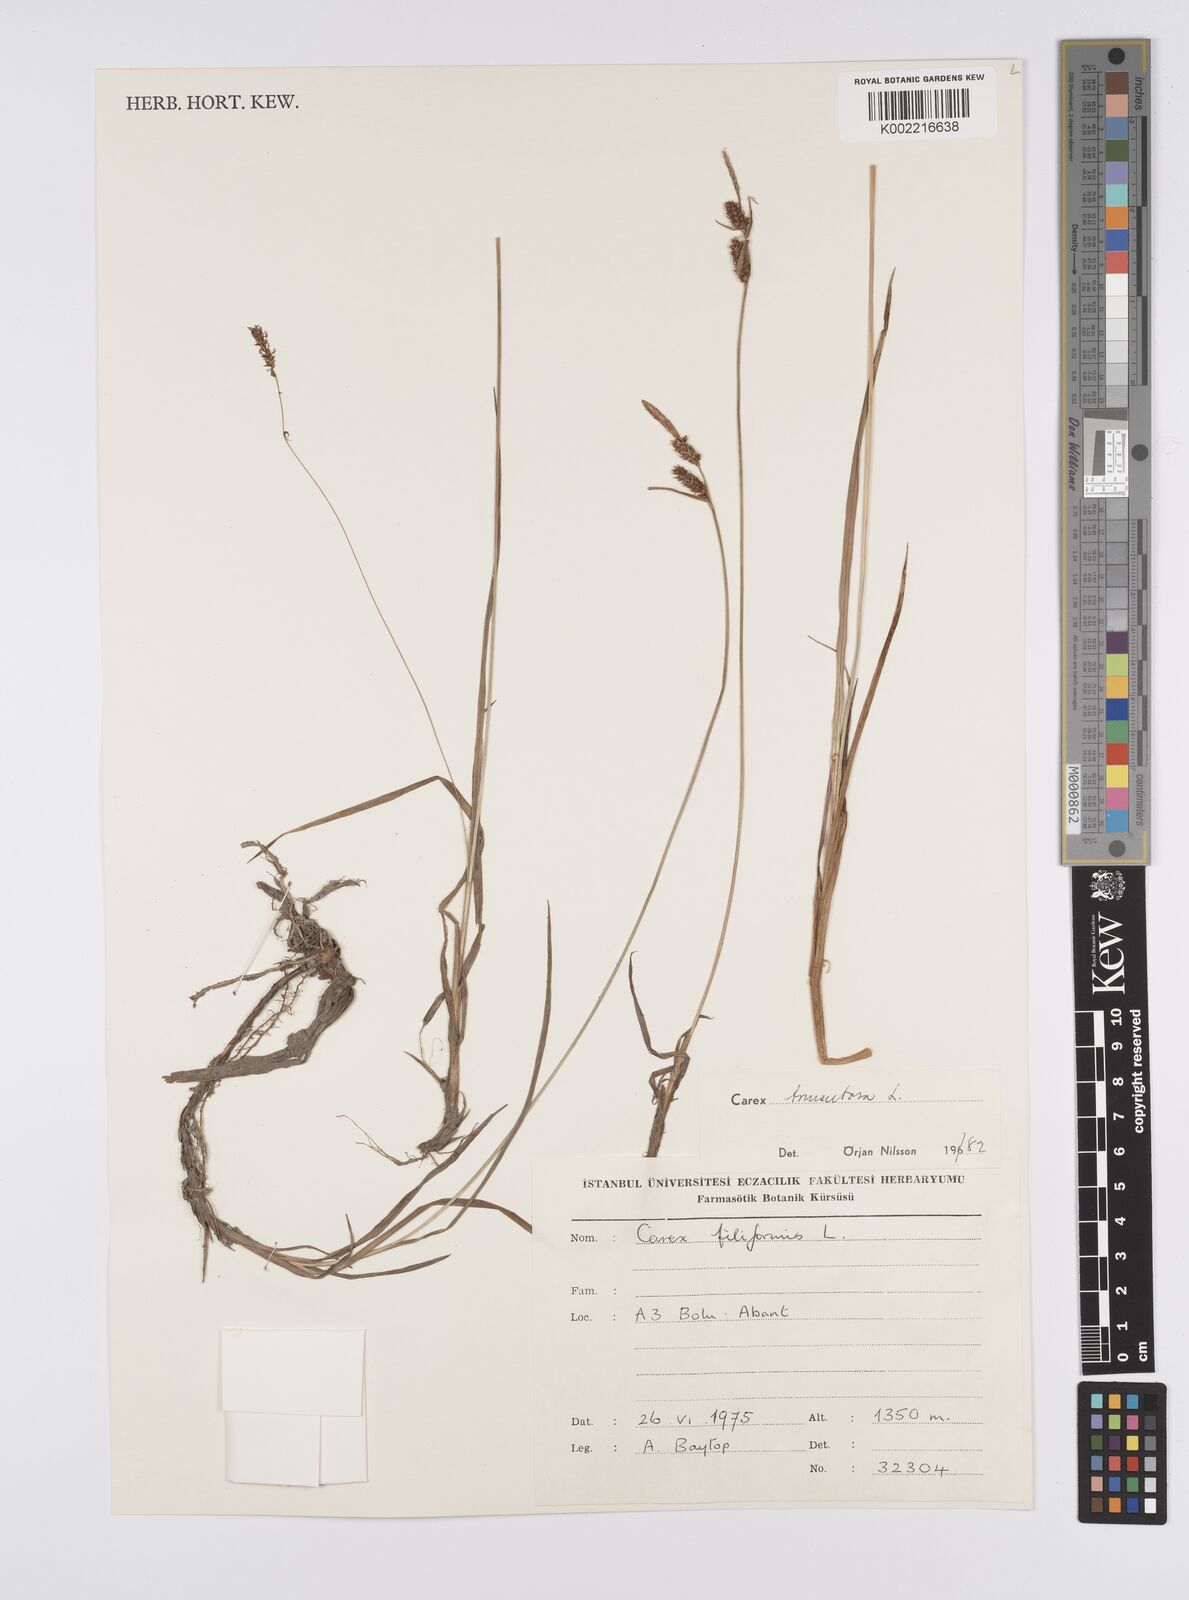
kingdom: Plantae
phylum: Tracheophyta
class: Liliopsida
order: Poales
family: Cyperaceae
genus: Carex
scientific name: Carex montana
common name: Soft-leaved sedge
